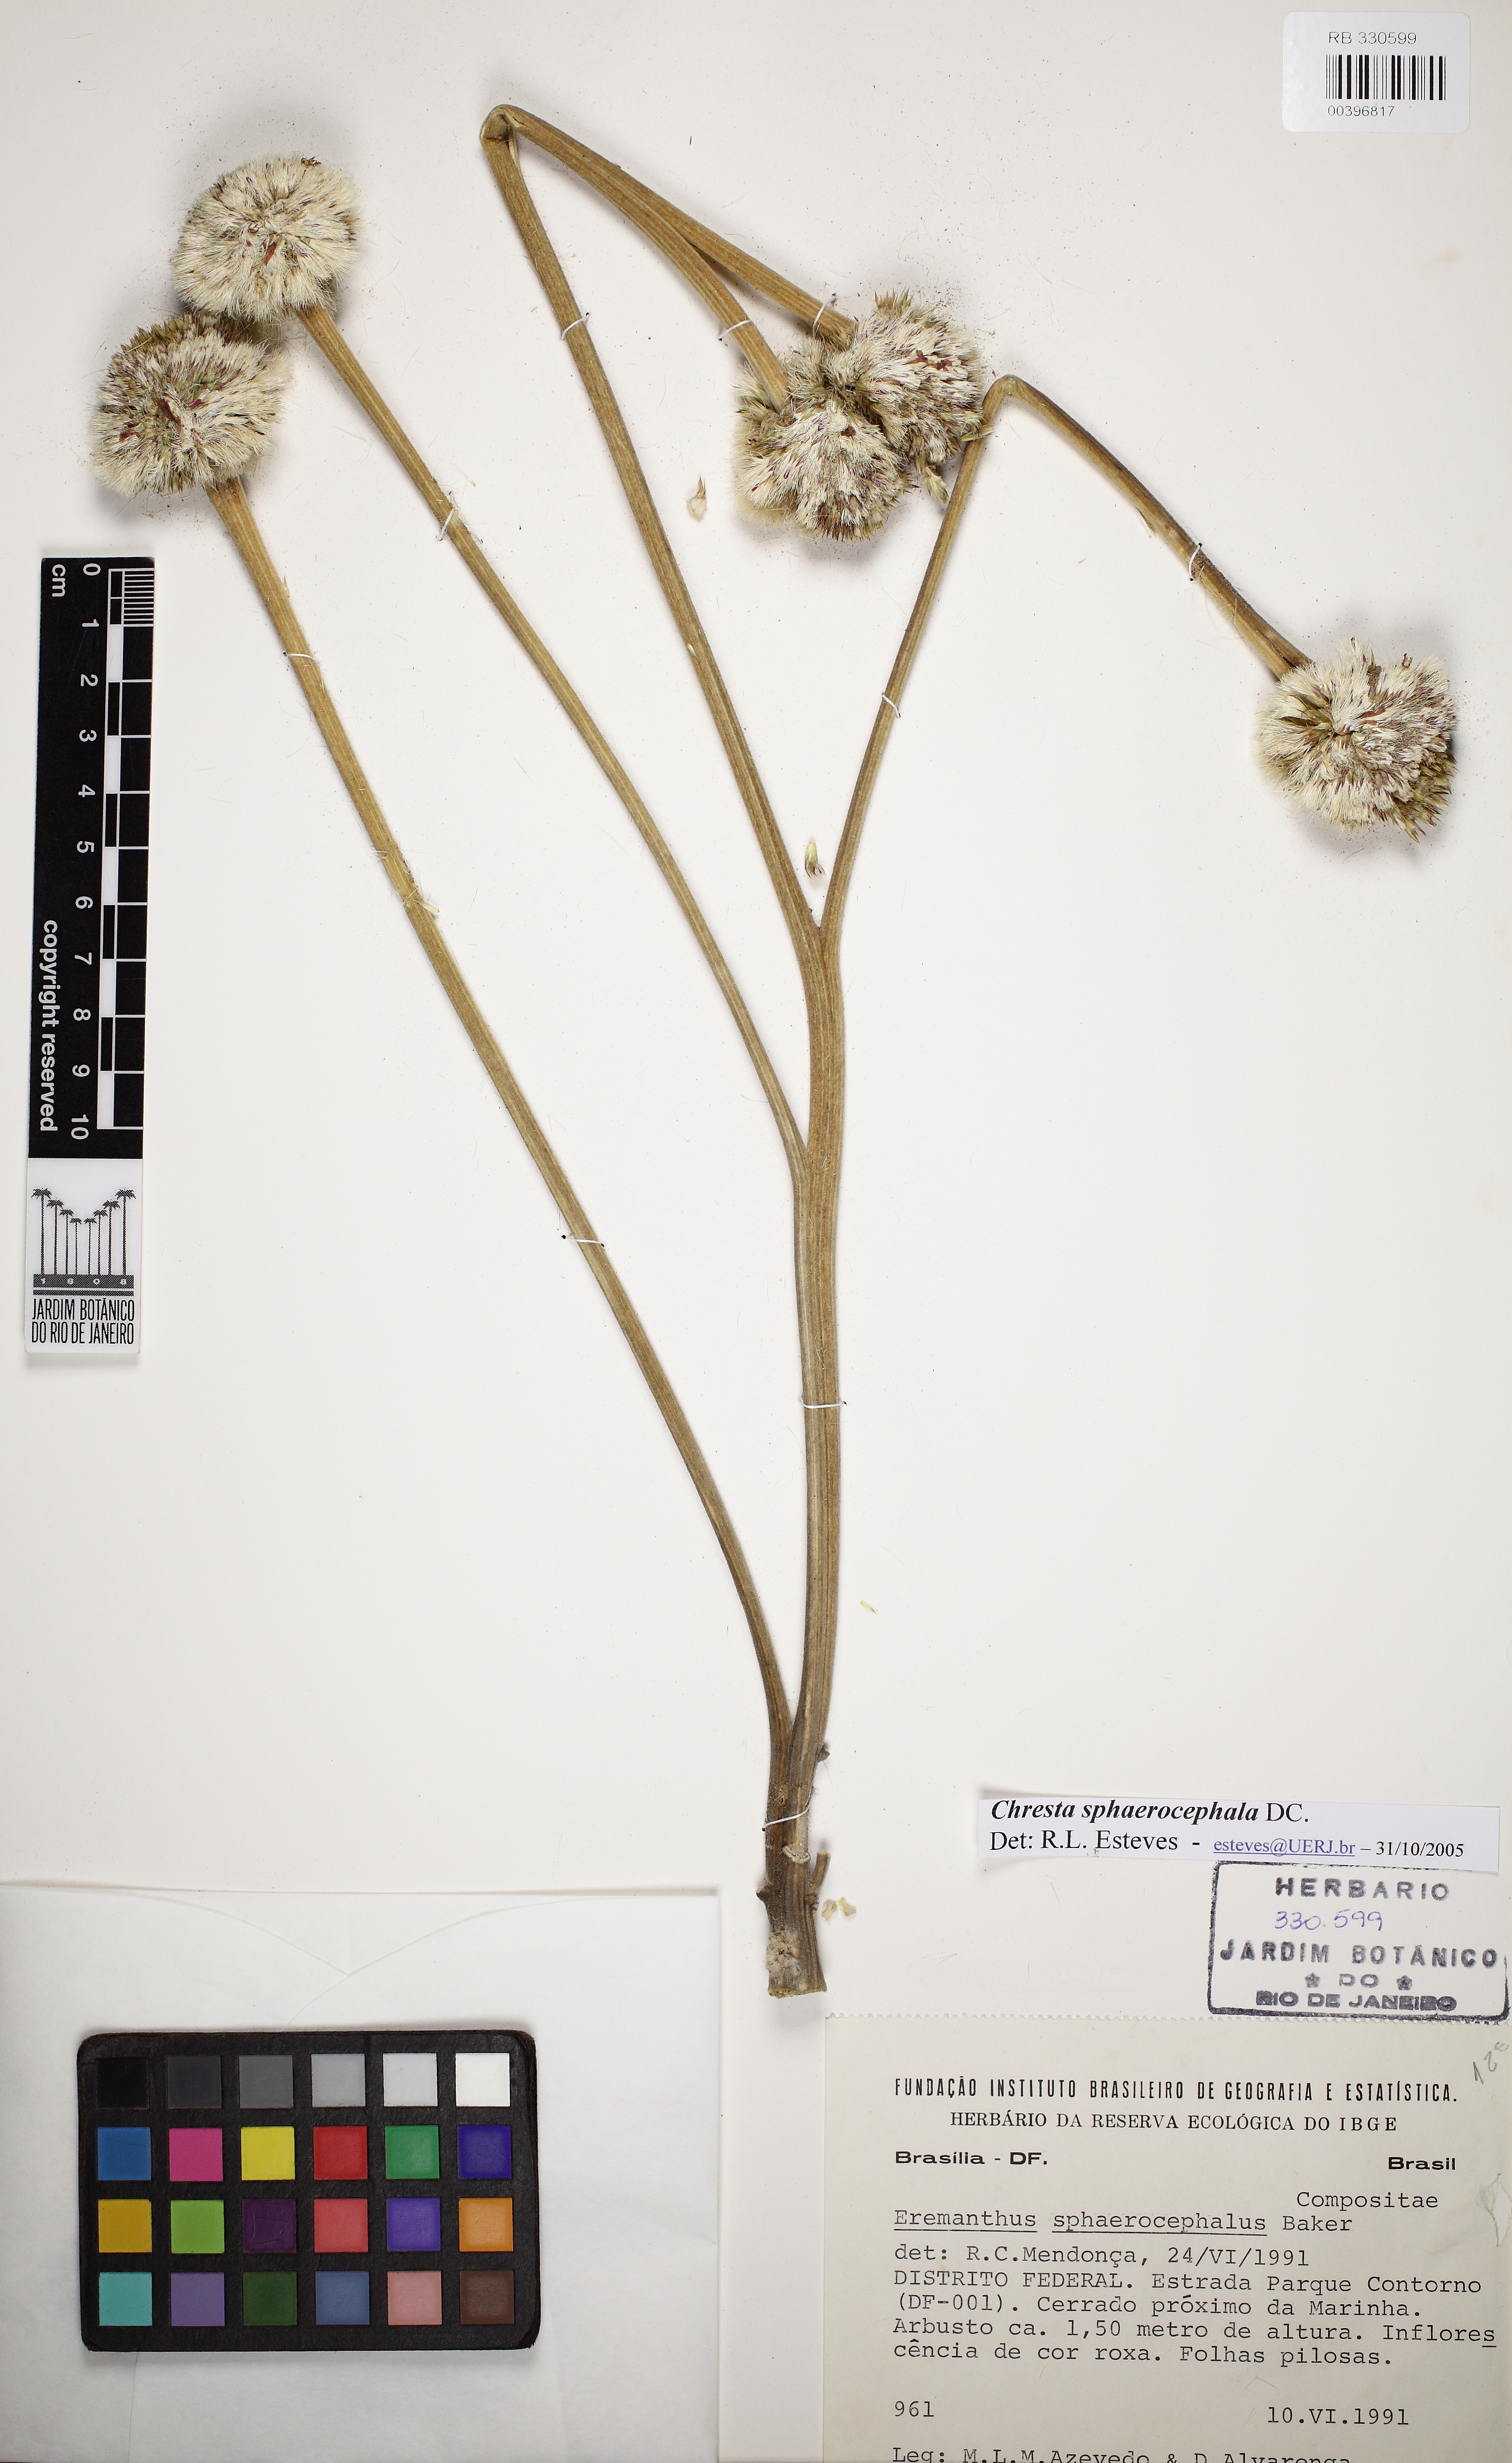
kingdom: Plantae
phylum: Tracheophyta
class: Magnoliopsida
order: Asterales
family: Asteraceae
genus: Chresta
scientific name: Chresta sphaerocephala
